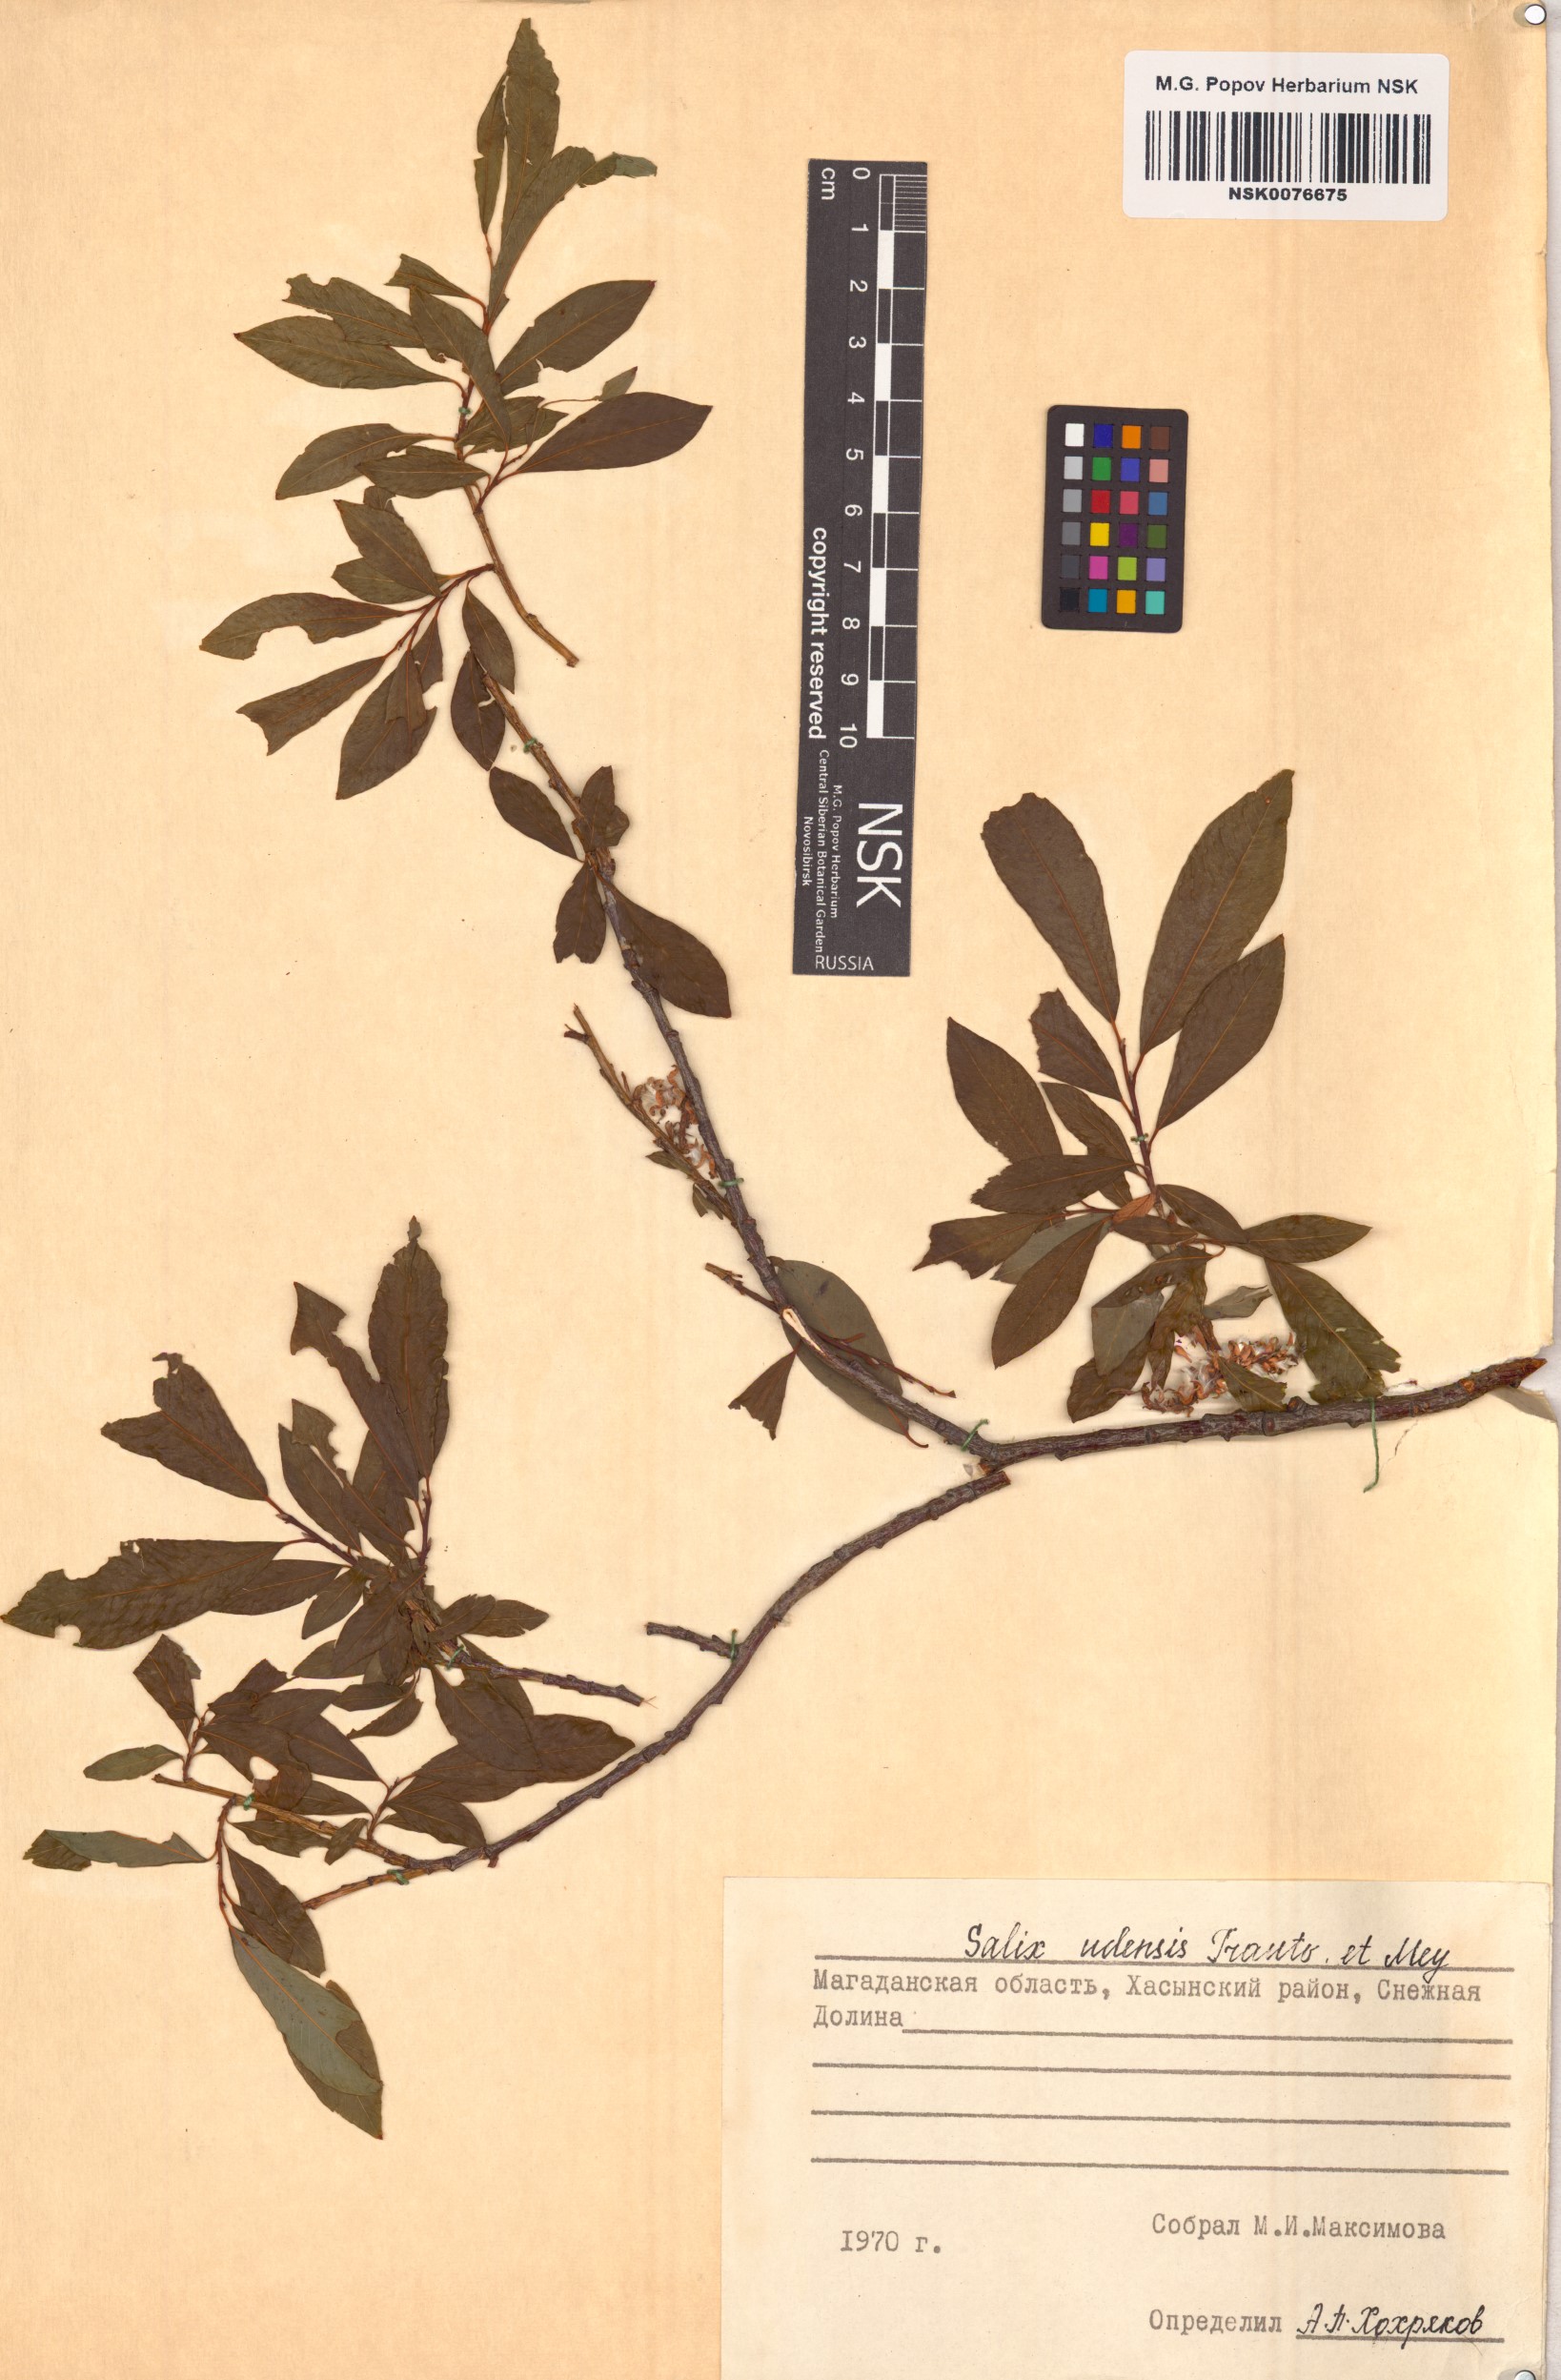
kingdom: Plantae
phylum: Tracheophyta
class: Magnoliopsida
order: Malpighiales
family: Salicaceae
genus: Salix
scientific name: Salix udensis
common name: Sachalin willow
